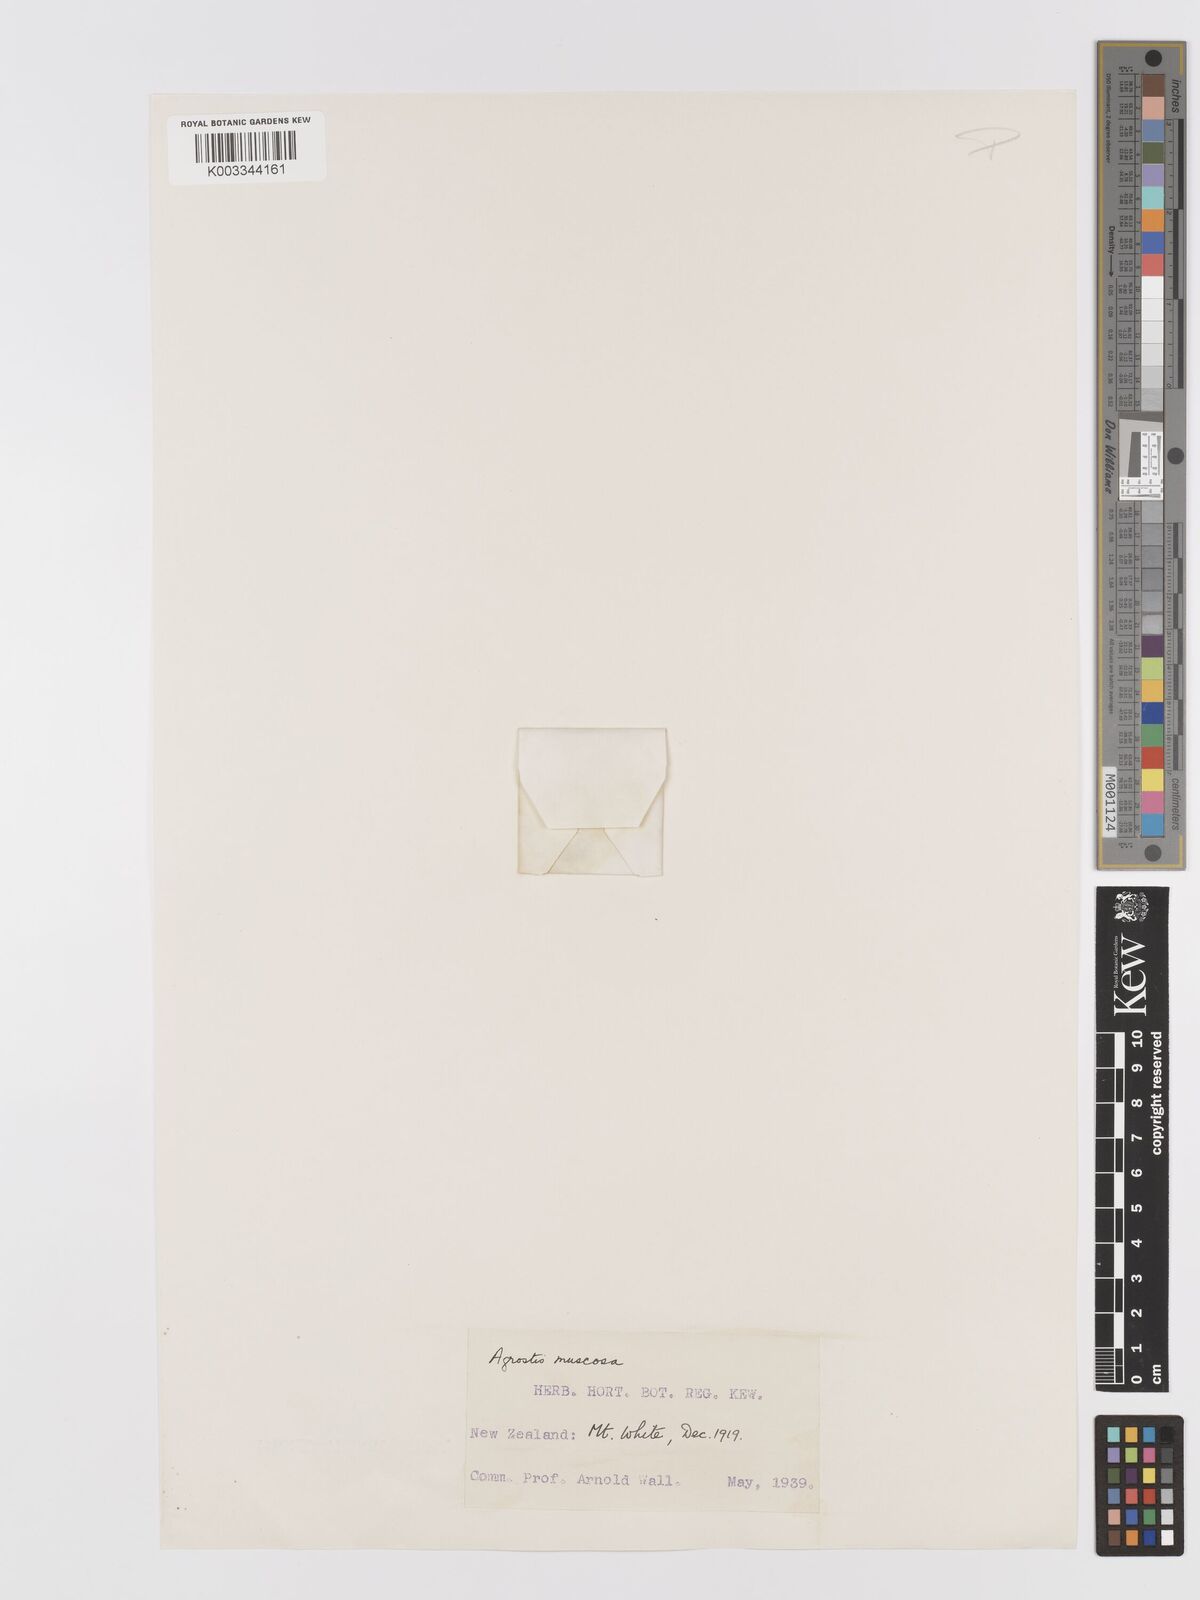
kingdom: Plantae
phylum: Tracheophyta
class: Liliopsida
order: Poales
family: Poaceae
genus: Agrostis
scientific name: Agrostis muscosa
